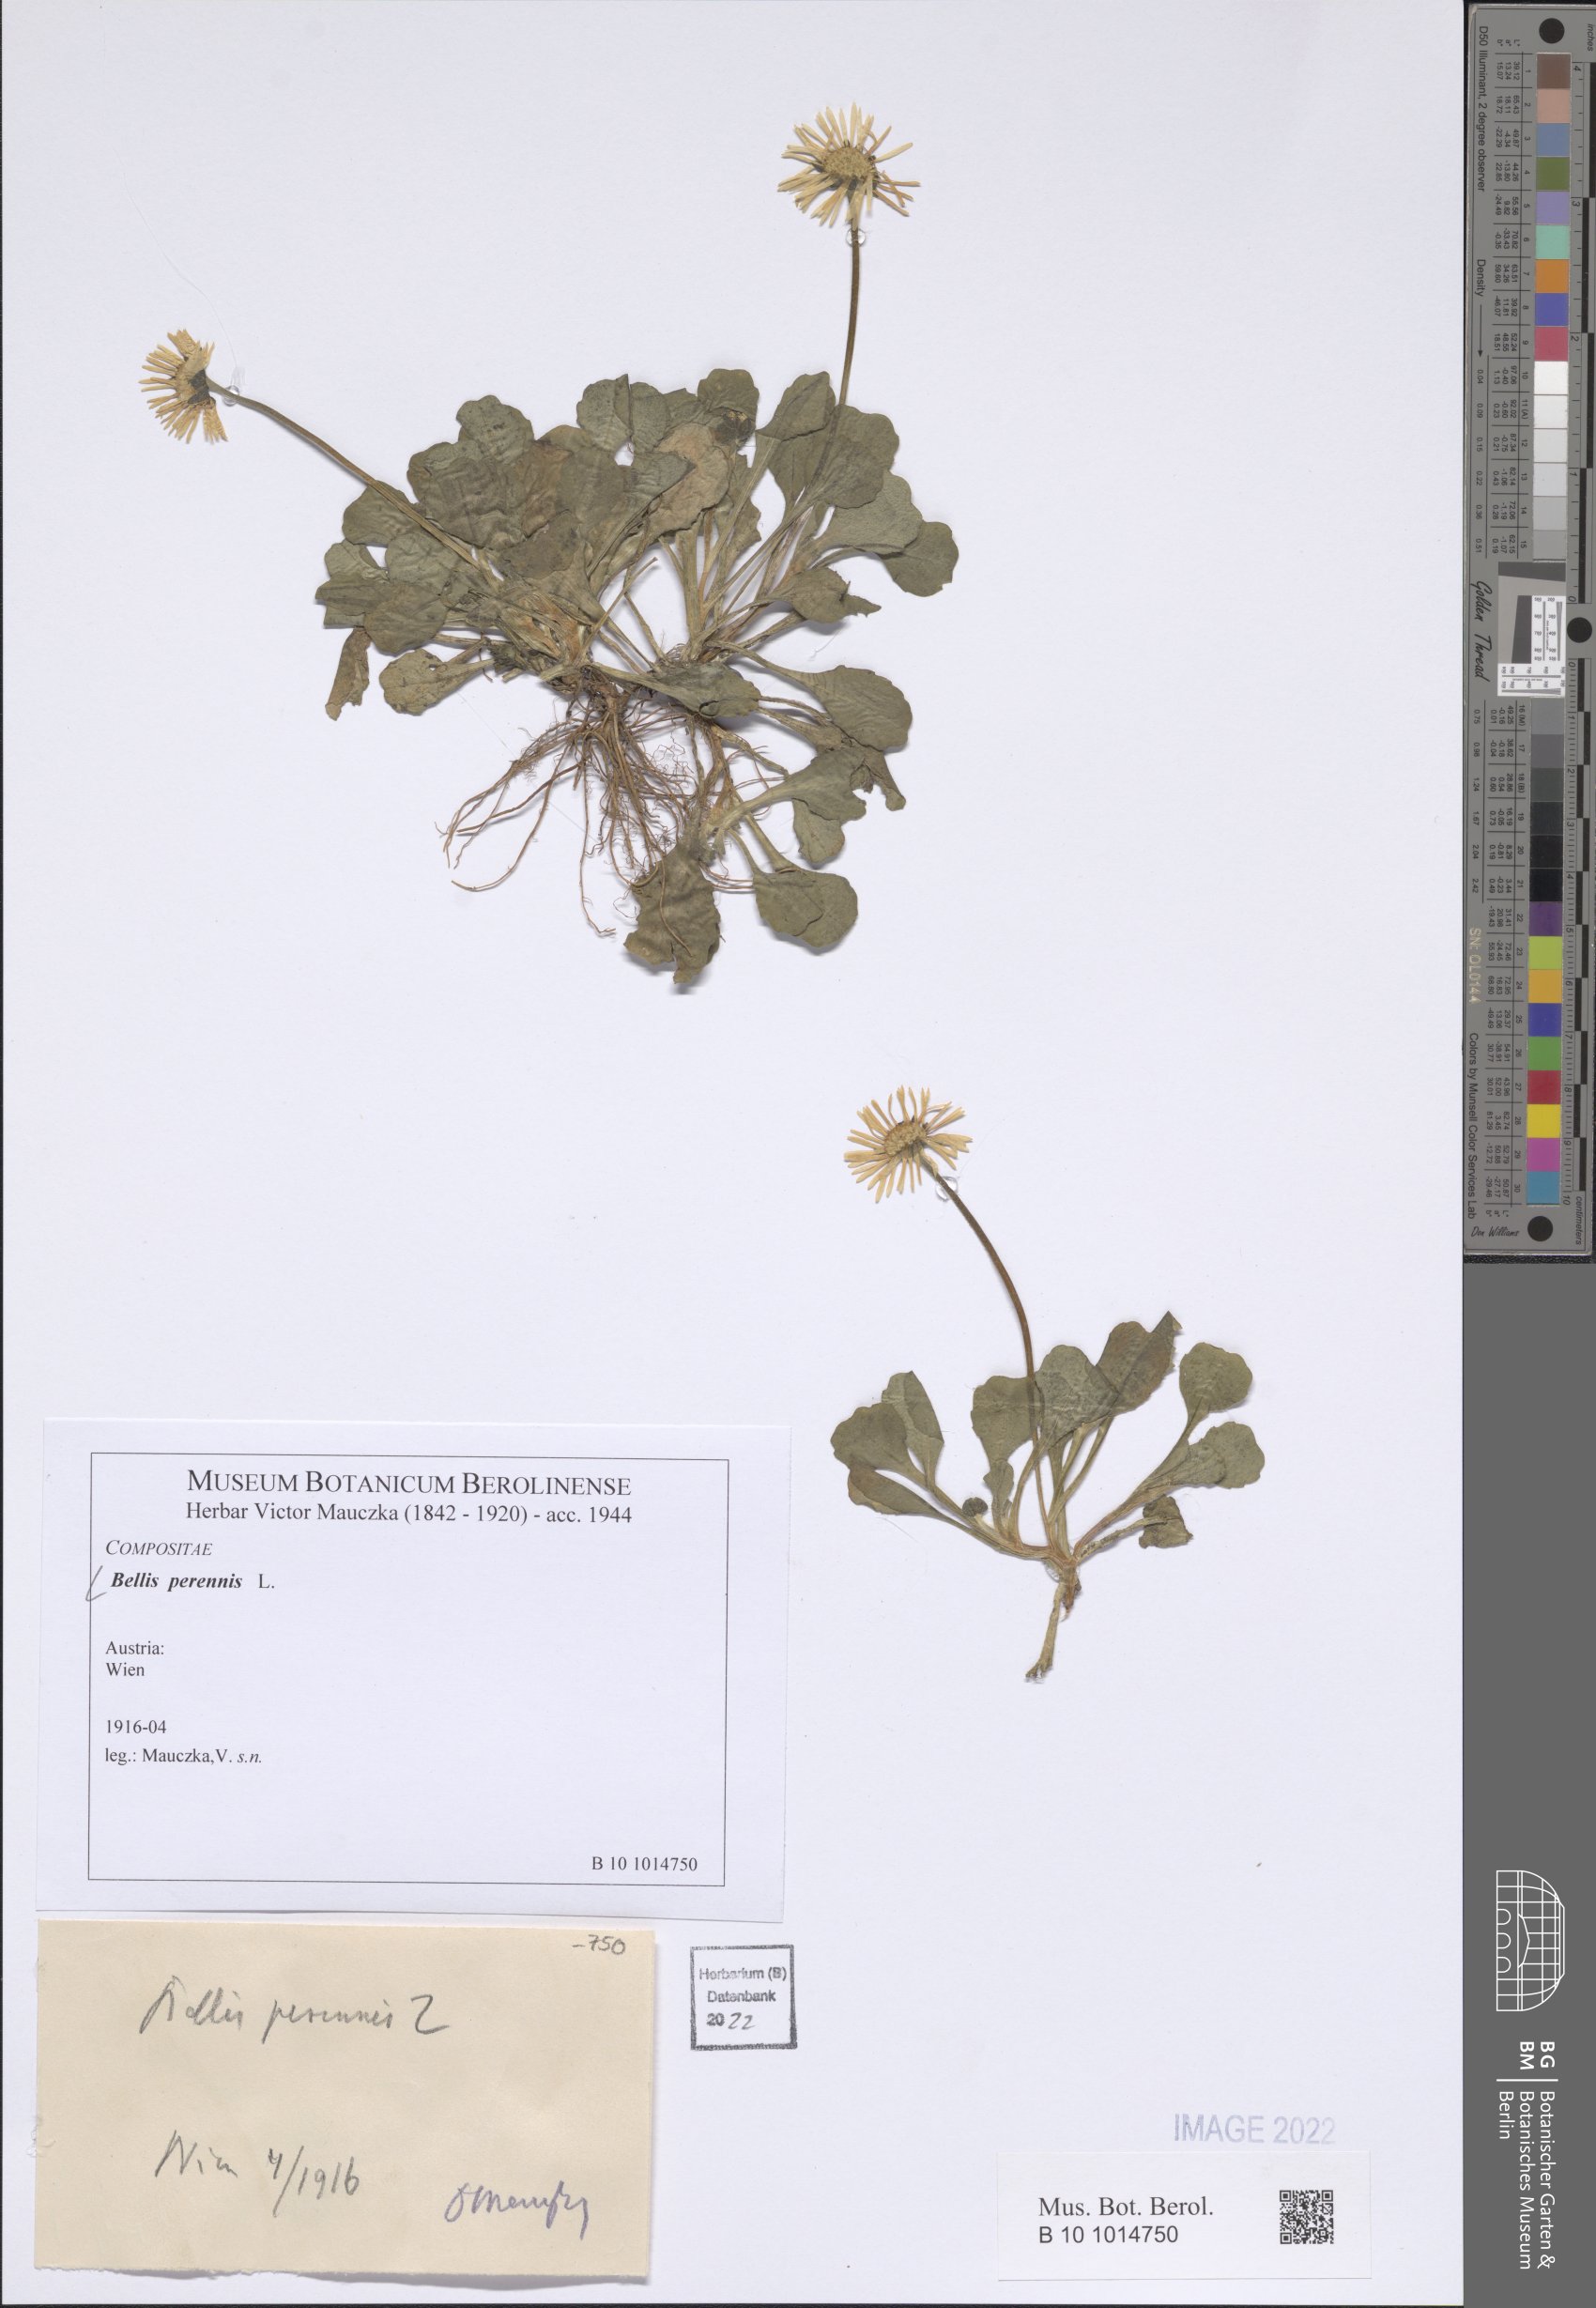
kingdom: Plantae
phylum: Tracheophyta
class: Magnoliopsida
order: Asterales
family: Asteraceae
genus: Bellis
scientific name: Bellis perennis
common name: Lawndaisy
